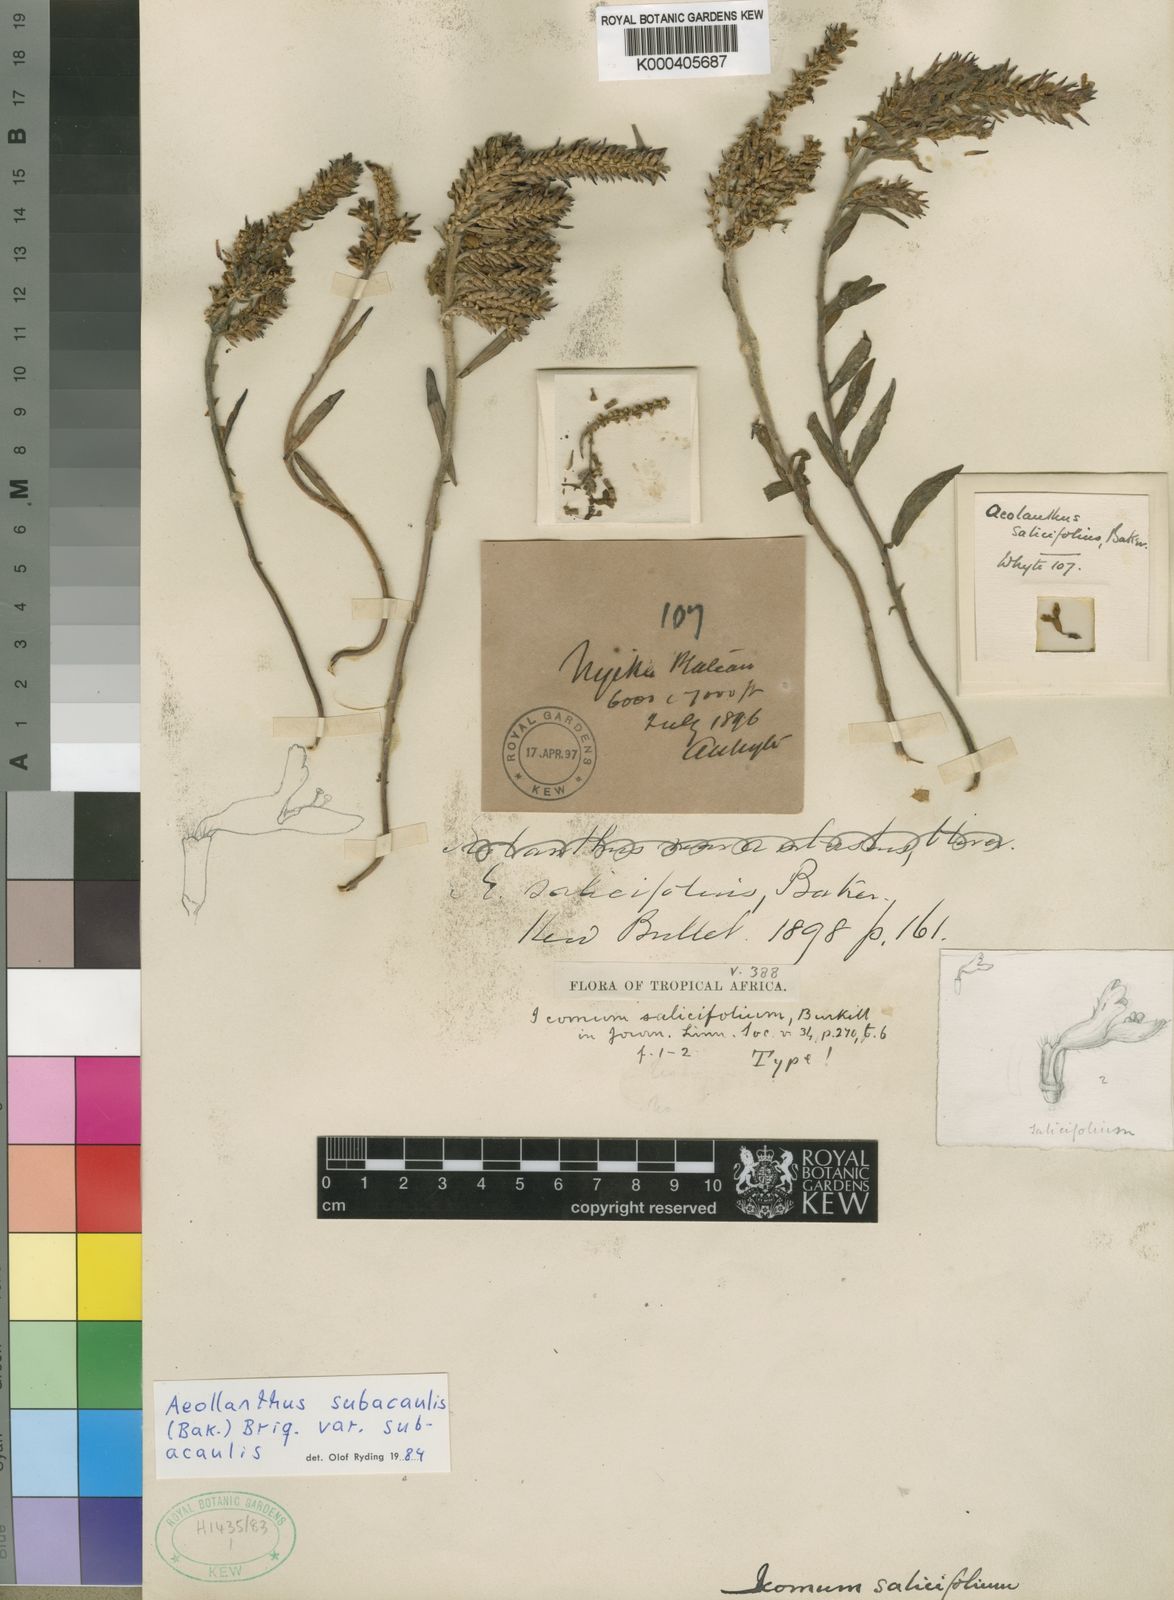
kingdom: Plantae
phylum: Tracheophyta
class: Magnoliopsida
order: Lamiales
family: Lamiaceae
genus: Aeollanthus
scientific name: Aeollanthus subacaulis
